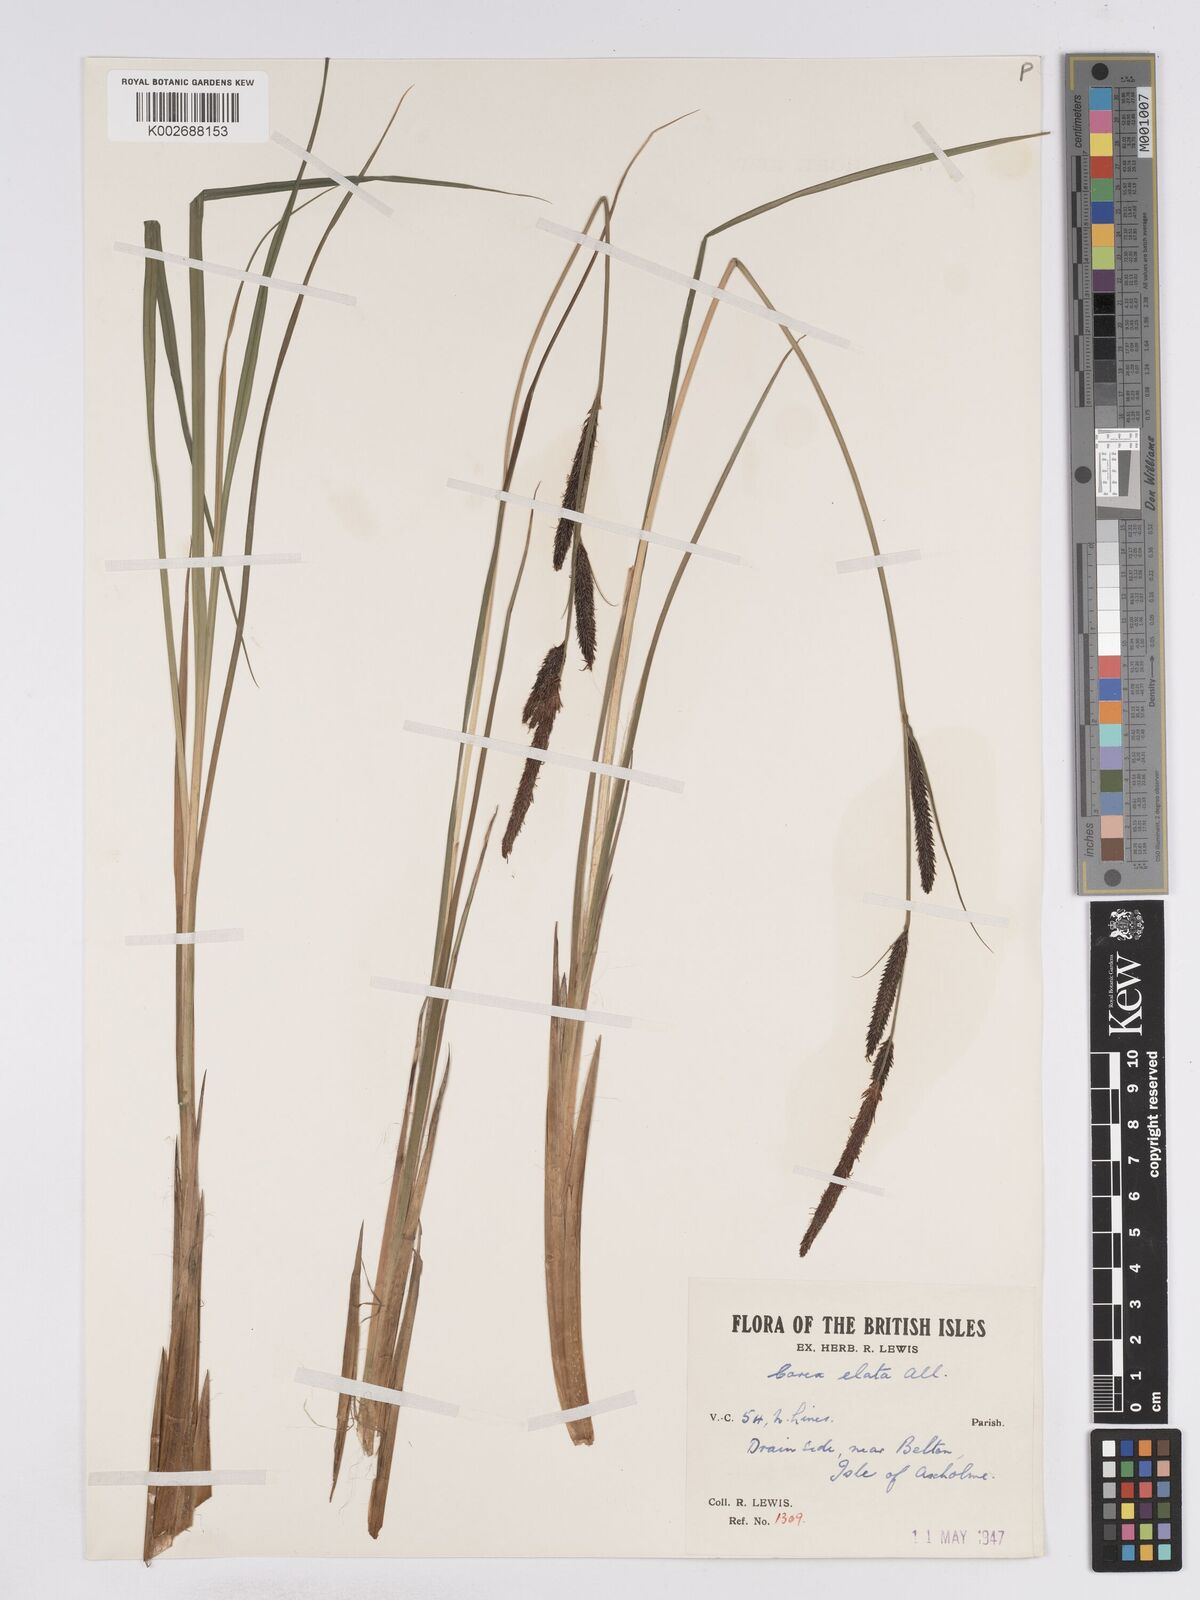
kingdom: Plantae
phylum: Tracheophyta
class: Liliopsida
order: Poales
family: Cyperaceae
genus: Carex
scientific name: Carex elata
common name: Tufted sedge
